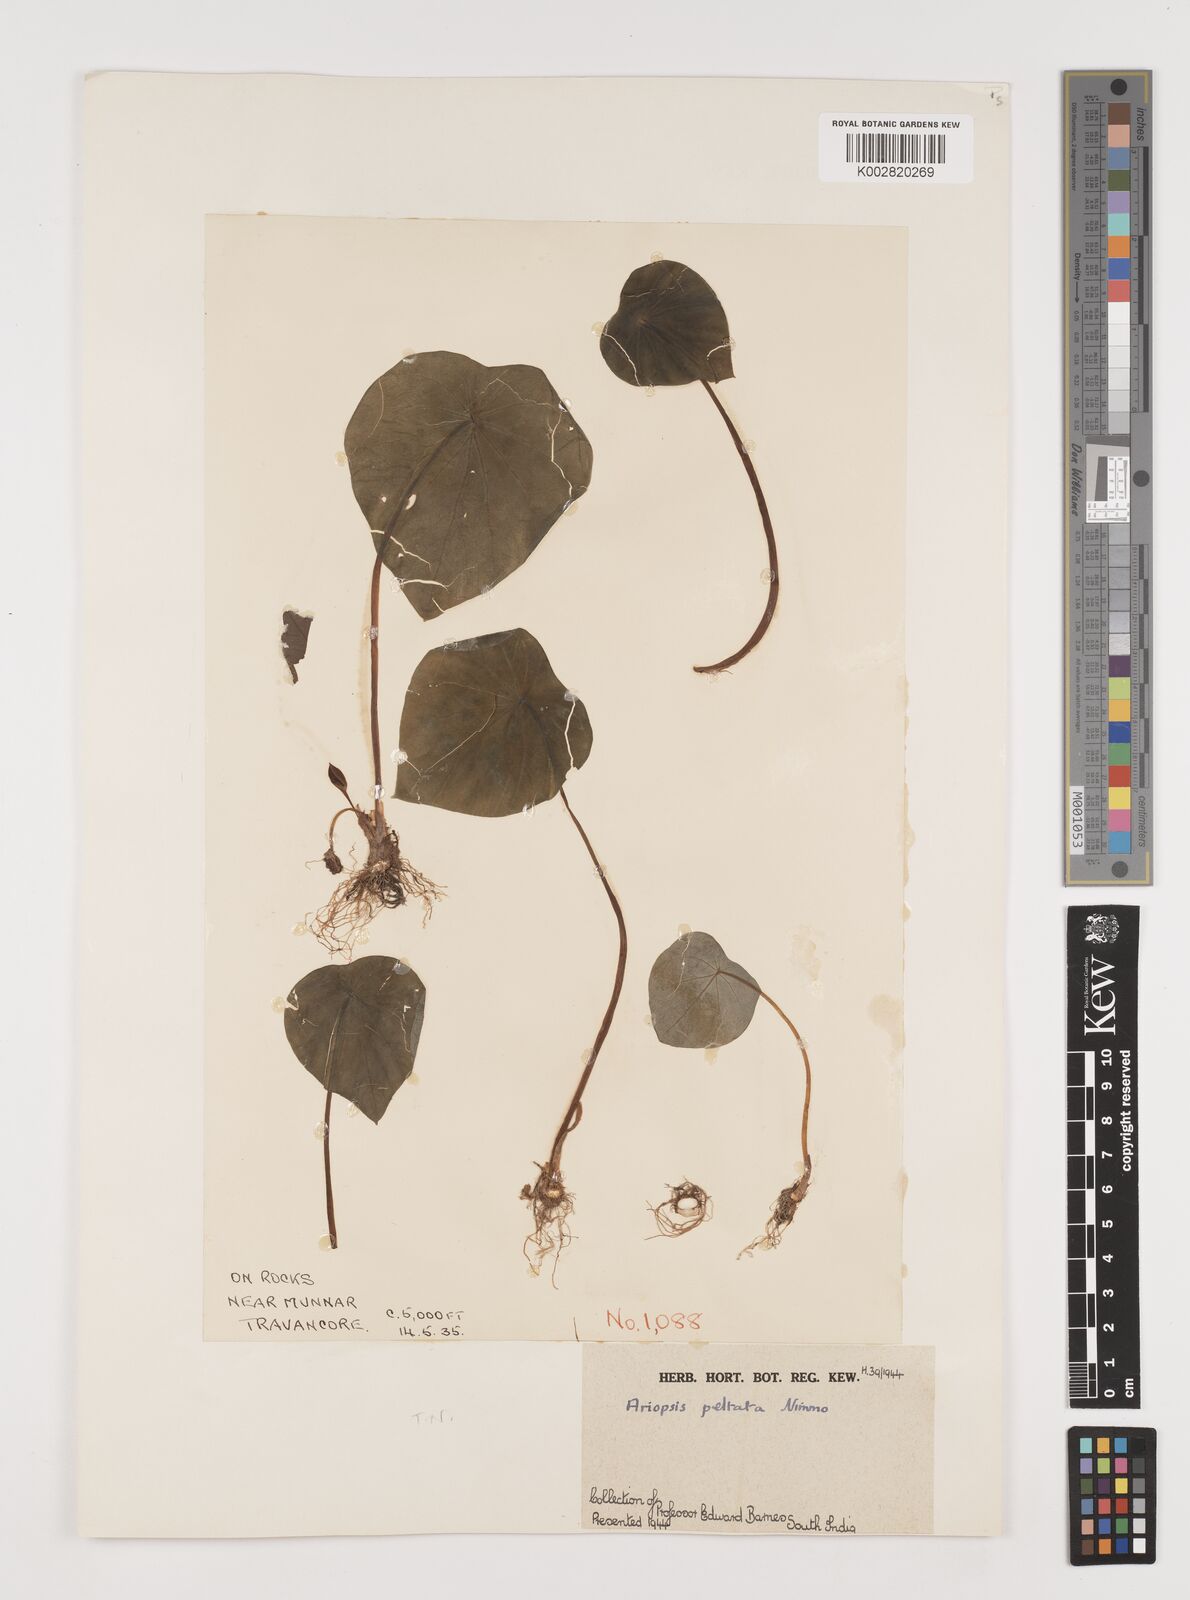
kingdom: Plantae
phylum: Tracheophyta
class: Liliopsida
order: Alismatales
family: Araceae
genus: Ariopsis
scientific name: Ariopsis peltata
